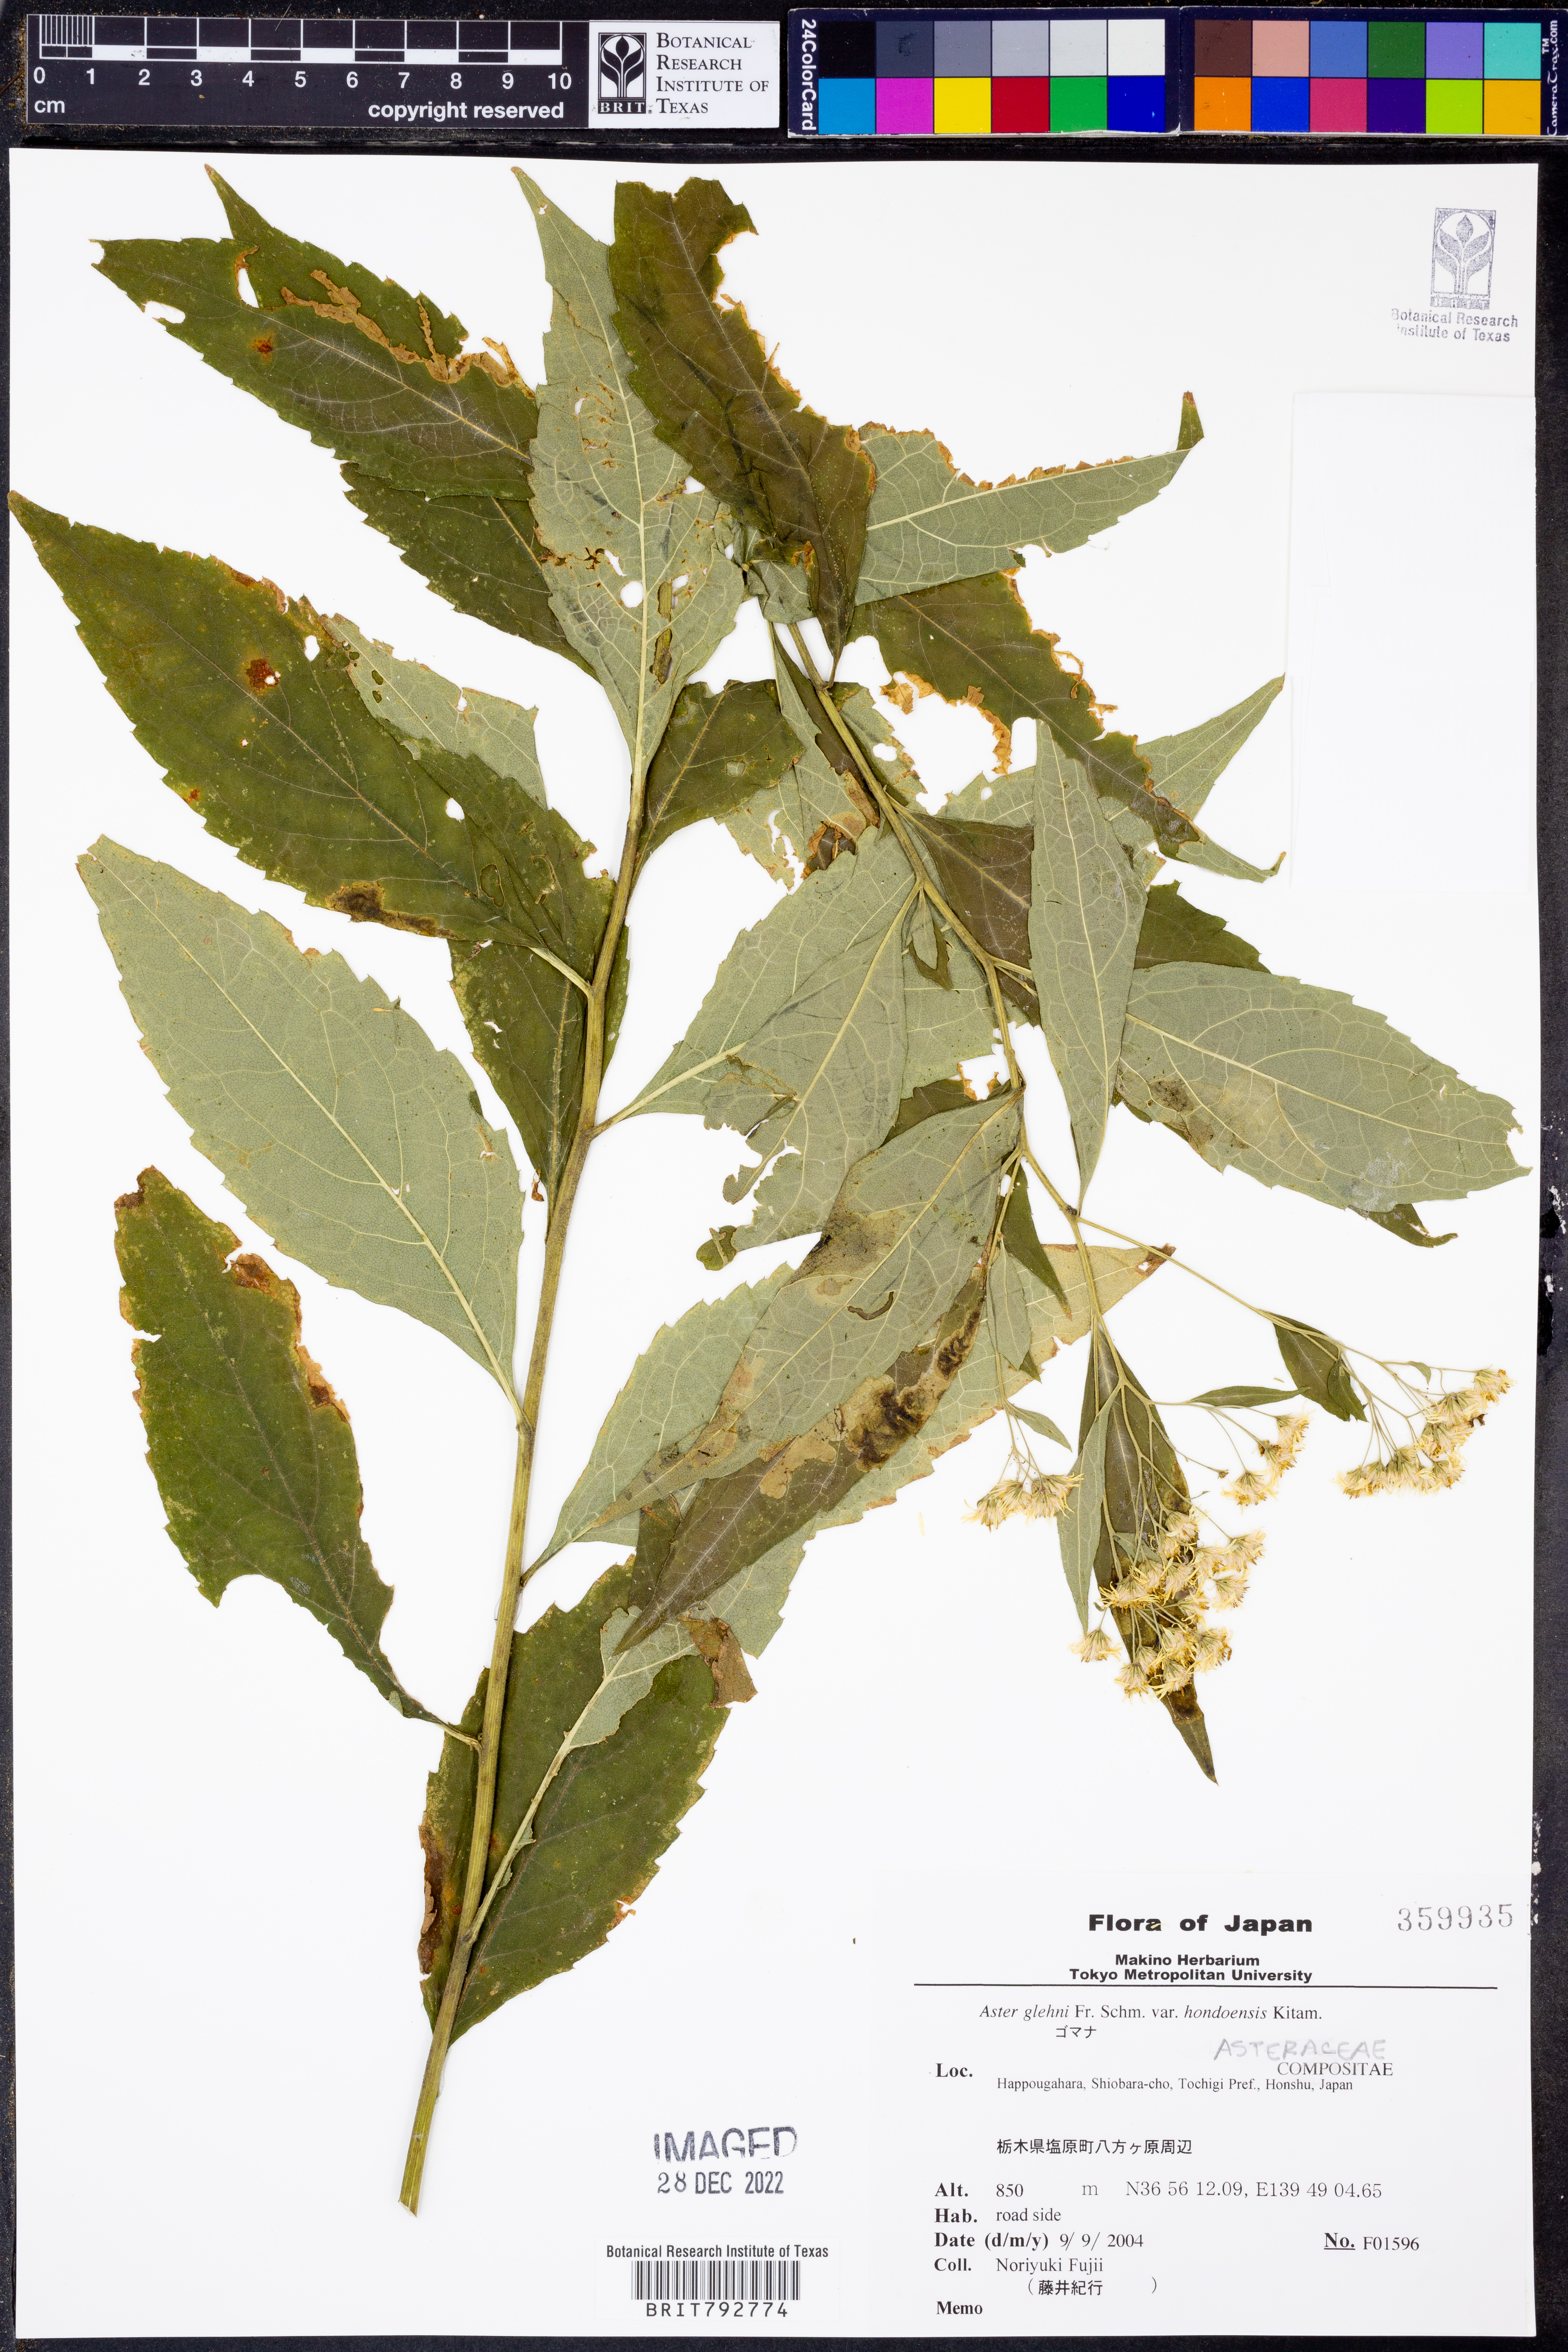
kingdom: Plantae
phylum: Tracheophyta
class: Magnoliopsida
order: Asterales
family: Asteraceae
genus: Kitamuria
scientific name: Kitamuria glehnii
